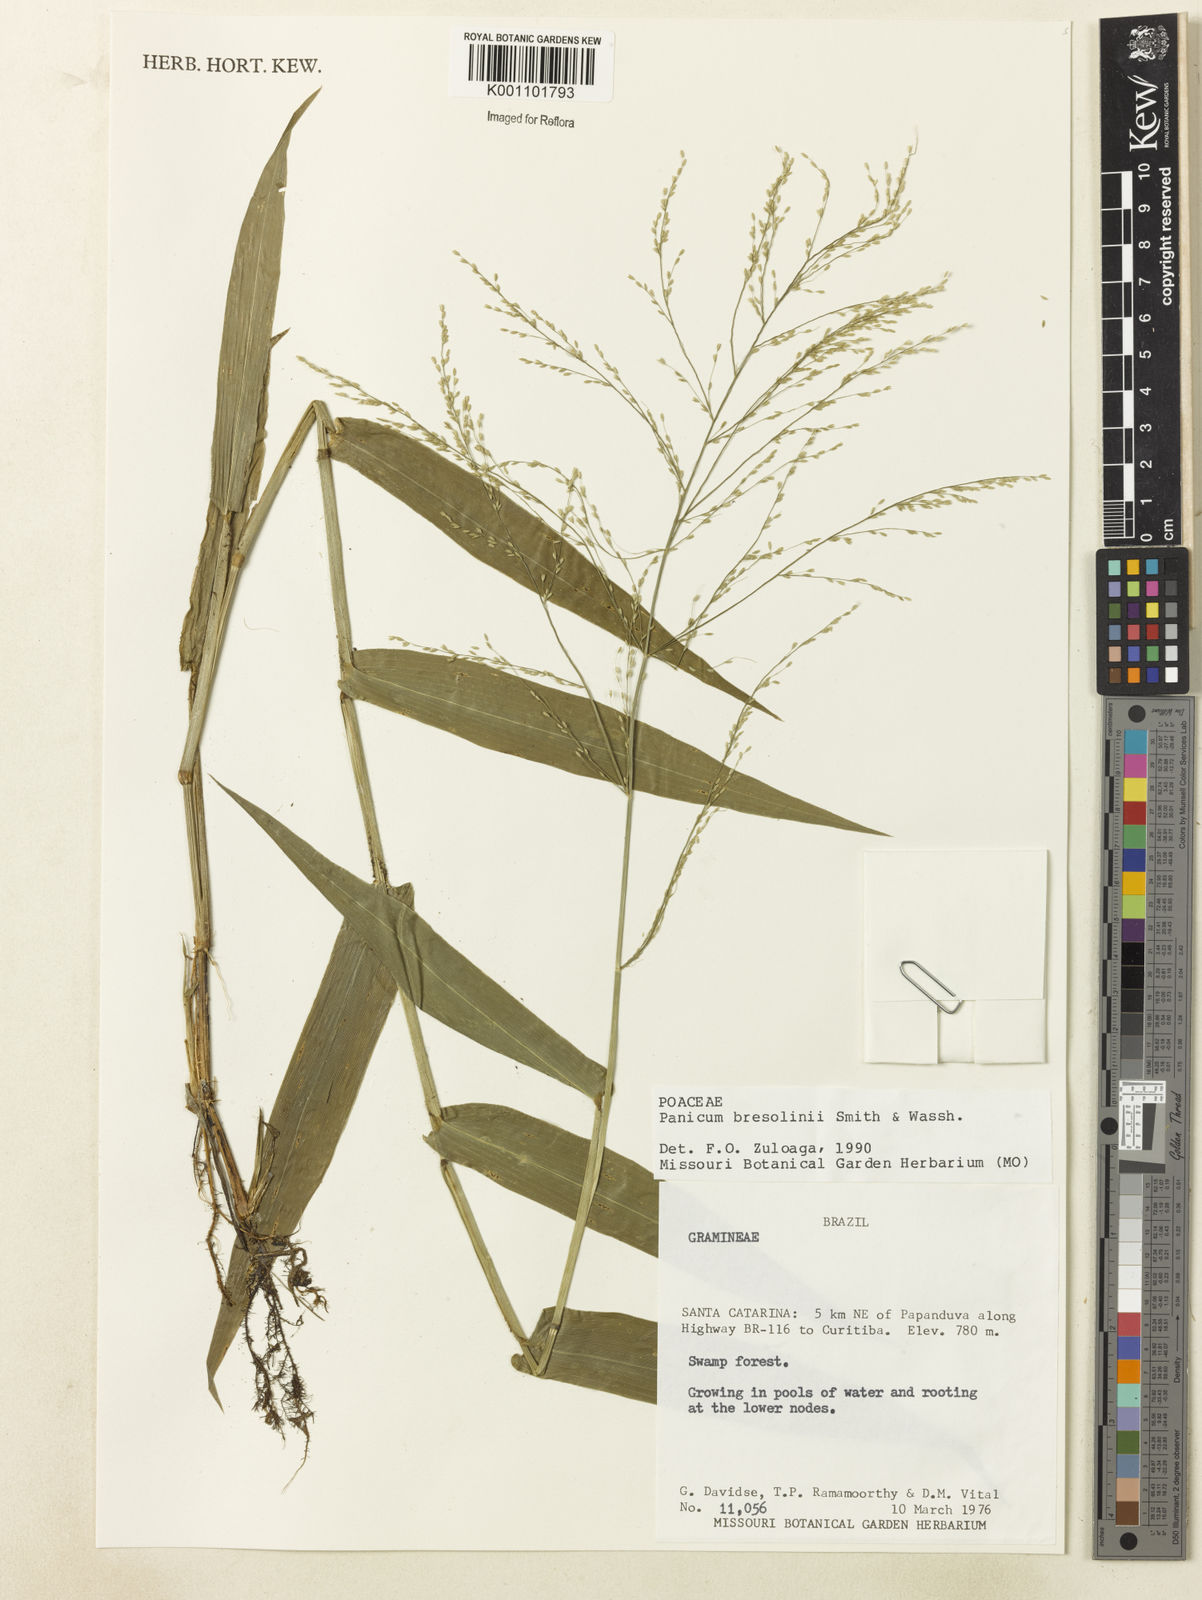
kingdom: Plantae
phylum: Tracheophyta
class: Liliopsida
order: Poales
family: Poaceae
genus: Hymenachne
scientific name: Hymenachne bresolinii
